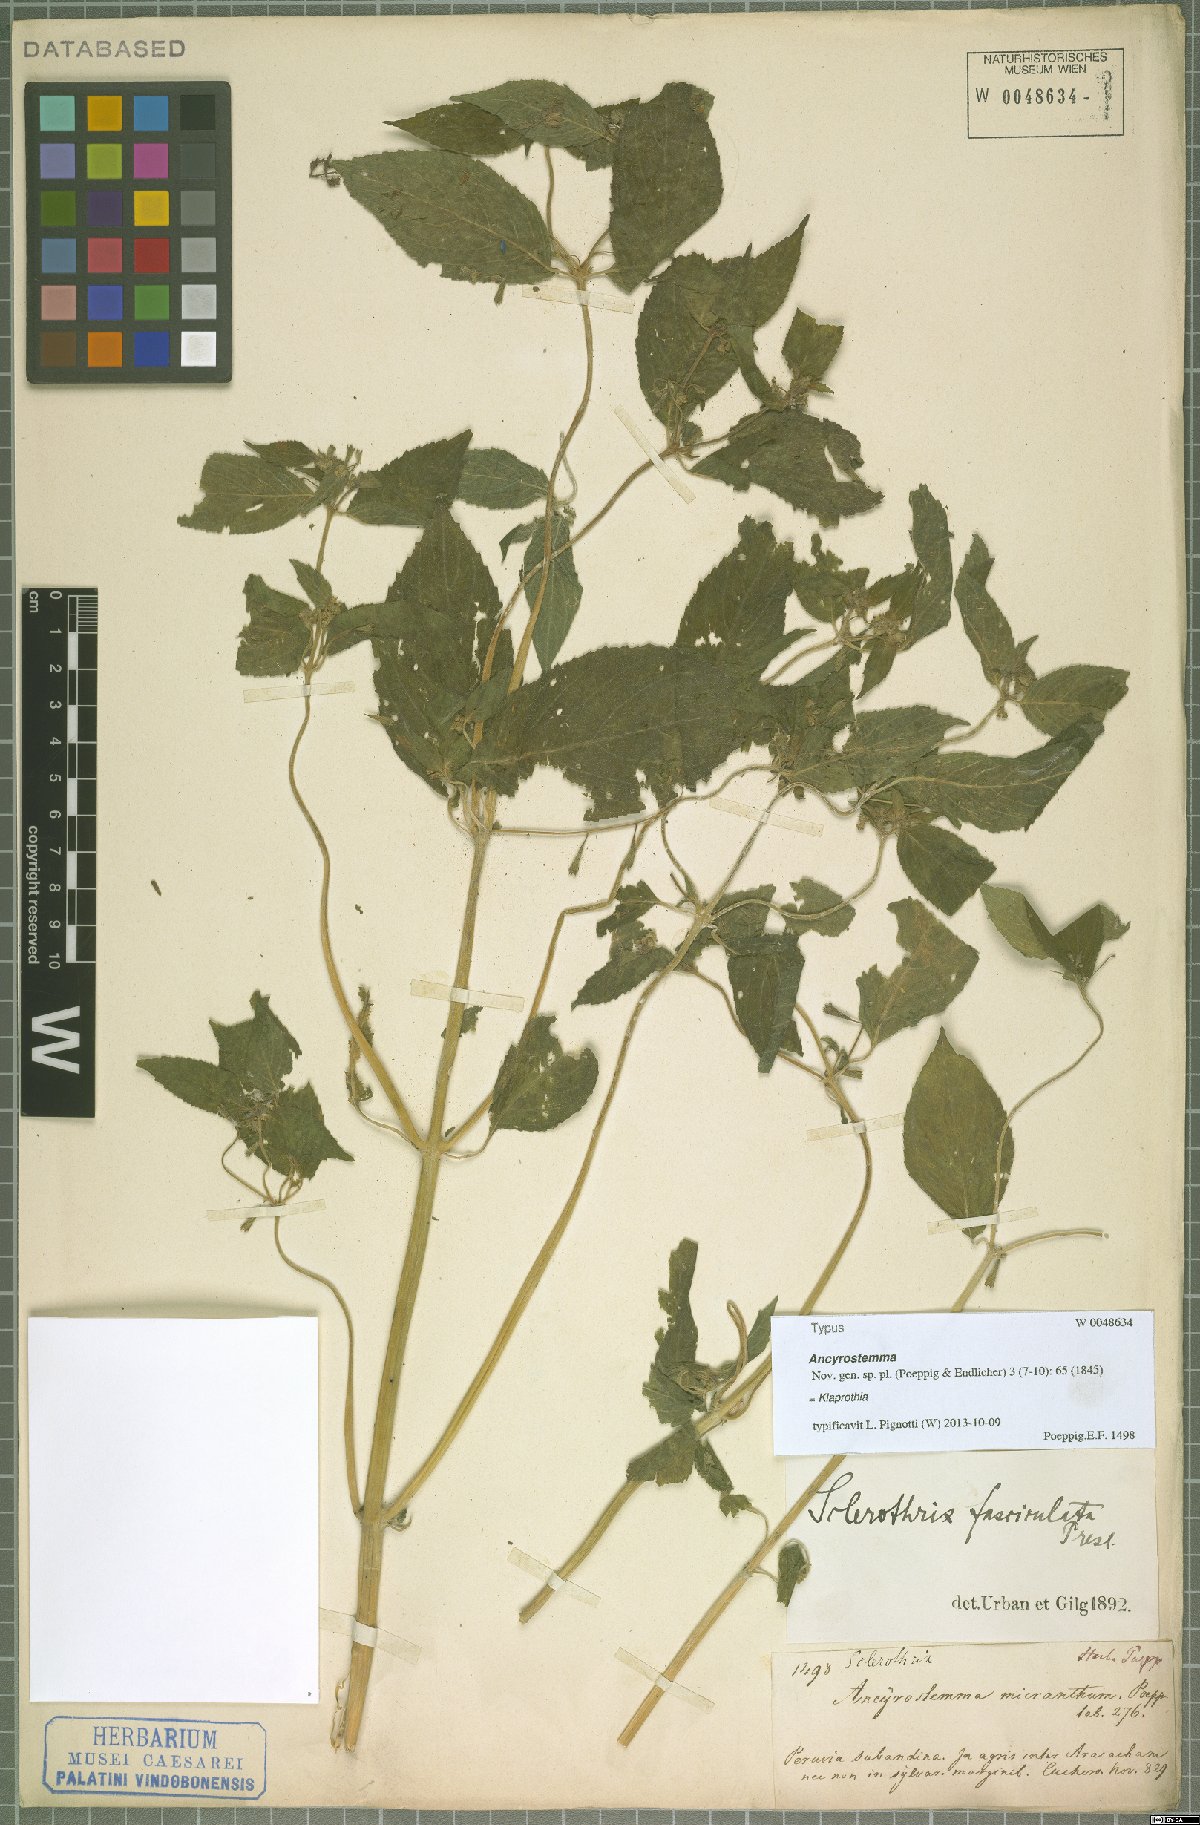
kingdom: Plantae
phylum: Tracheophyta
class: Magnoliopsida
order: Cornales
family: Loasaceae
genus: Klaprothia
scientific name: Klaprothia fasciculata
